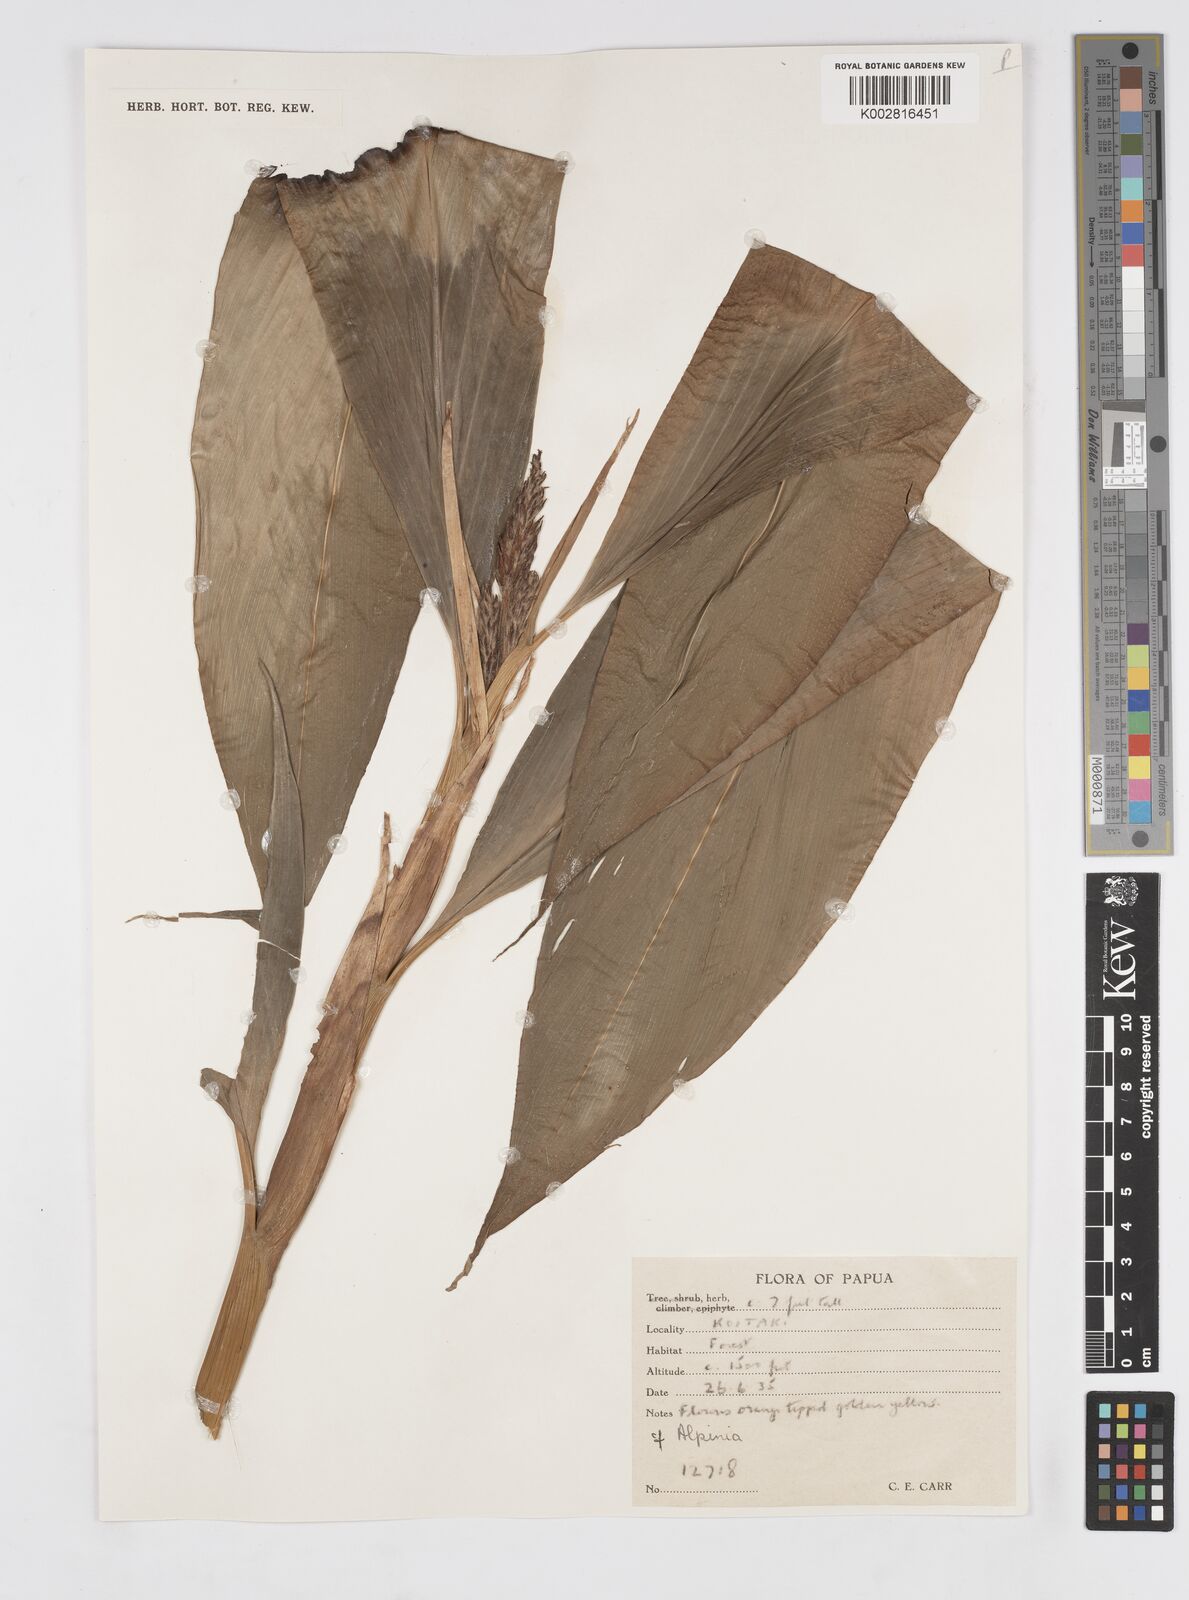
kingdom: Plantae
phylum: Tracheophyta
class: Liliopsida
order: Zingiberales
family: Zingiberaceae
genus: Alpinia
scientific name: Alpinia
